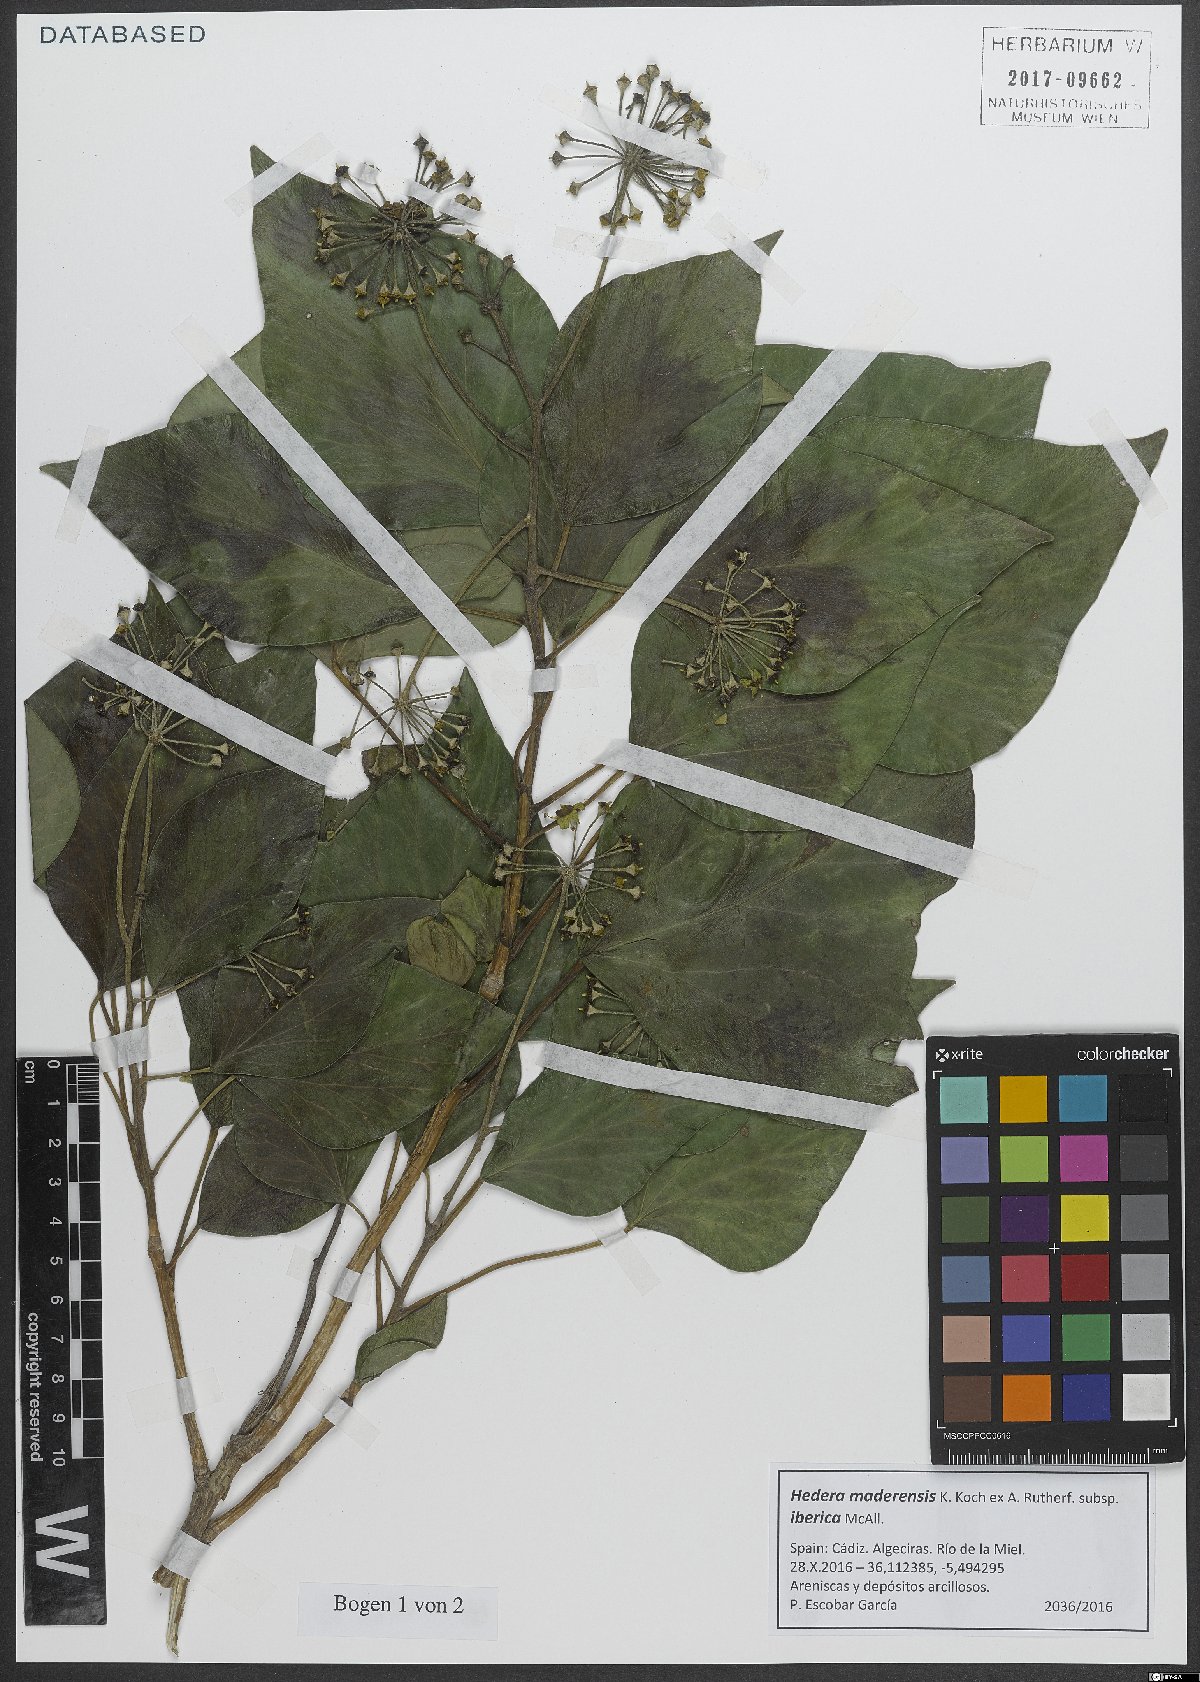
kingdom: Plantae
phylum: Tracheophyta
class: Magnoliopsida
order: Apiales
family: Araliaceae
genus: Hedera
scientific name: Hedera iberica
